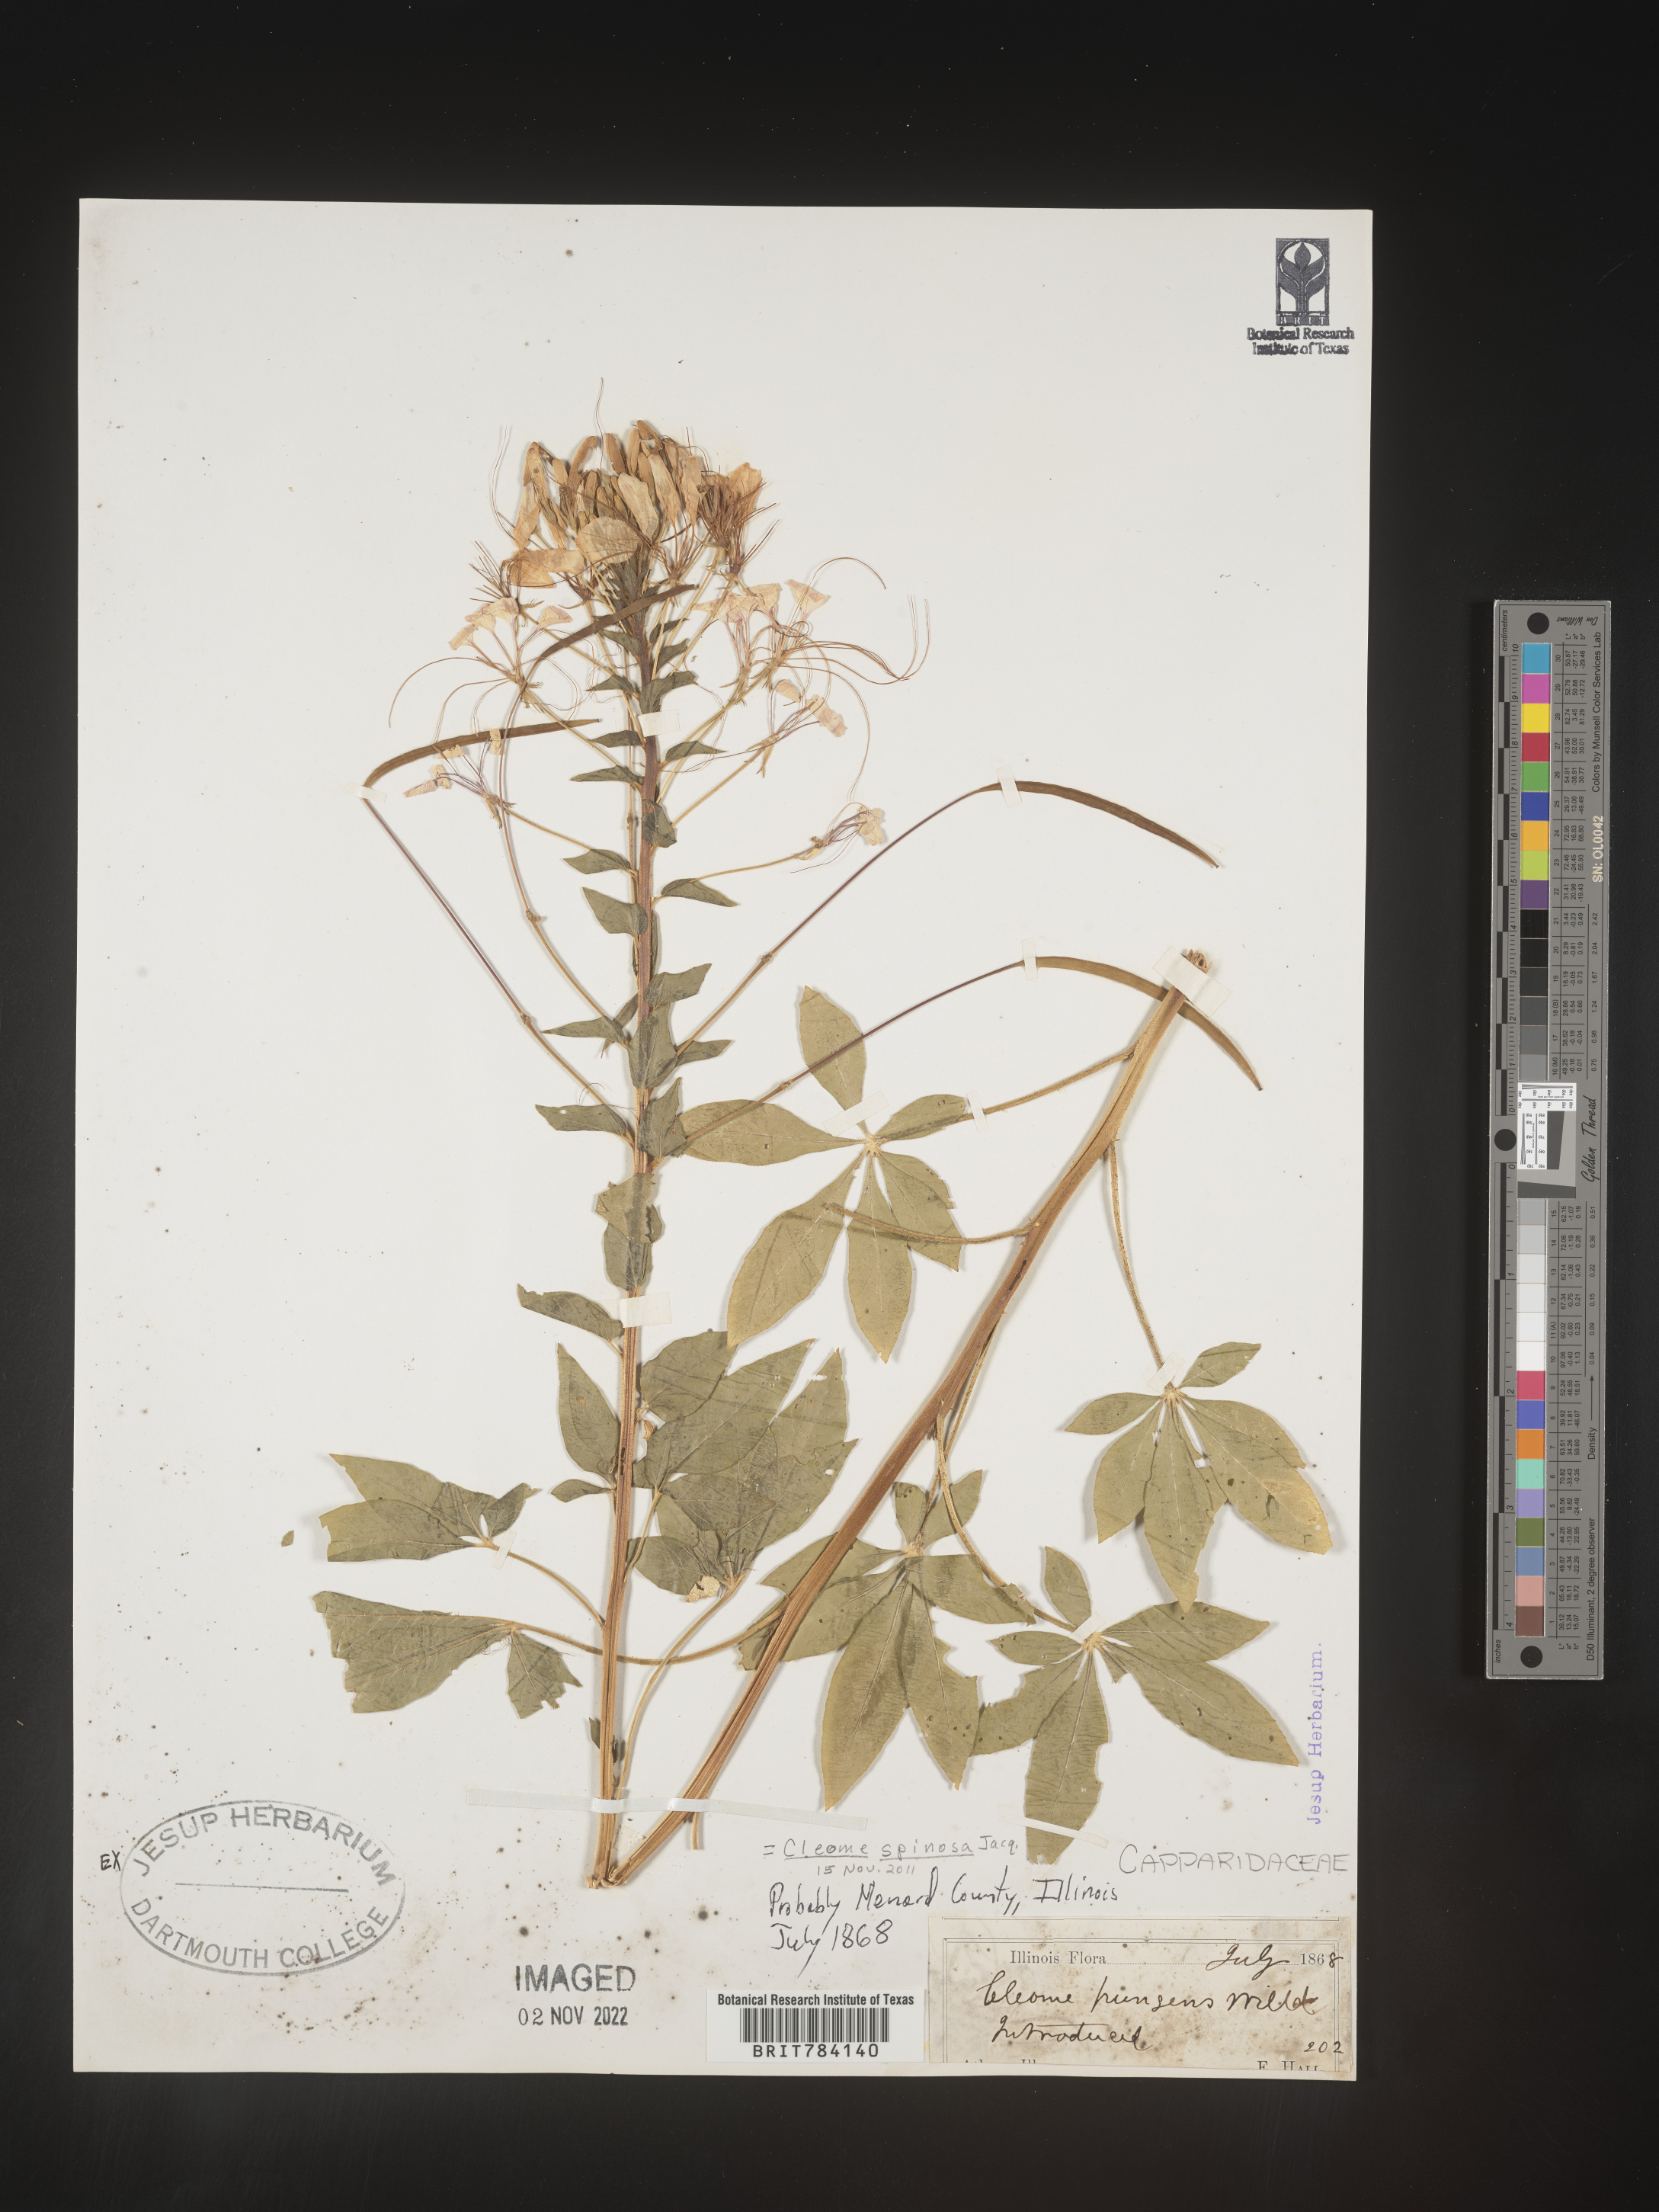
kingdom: Plantae
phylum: Tracheophyta
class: Magnoliopsida
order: Brassicales
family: Cleomaceae
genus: Cleome
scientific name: Cleome
